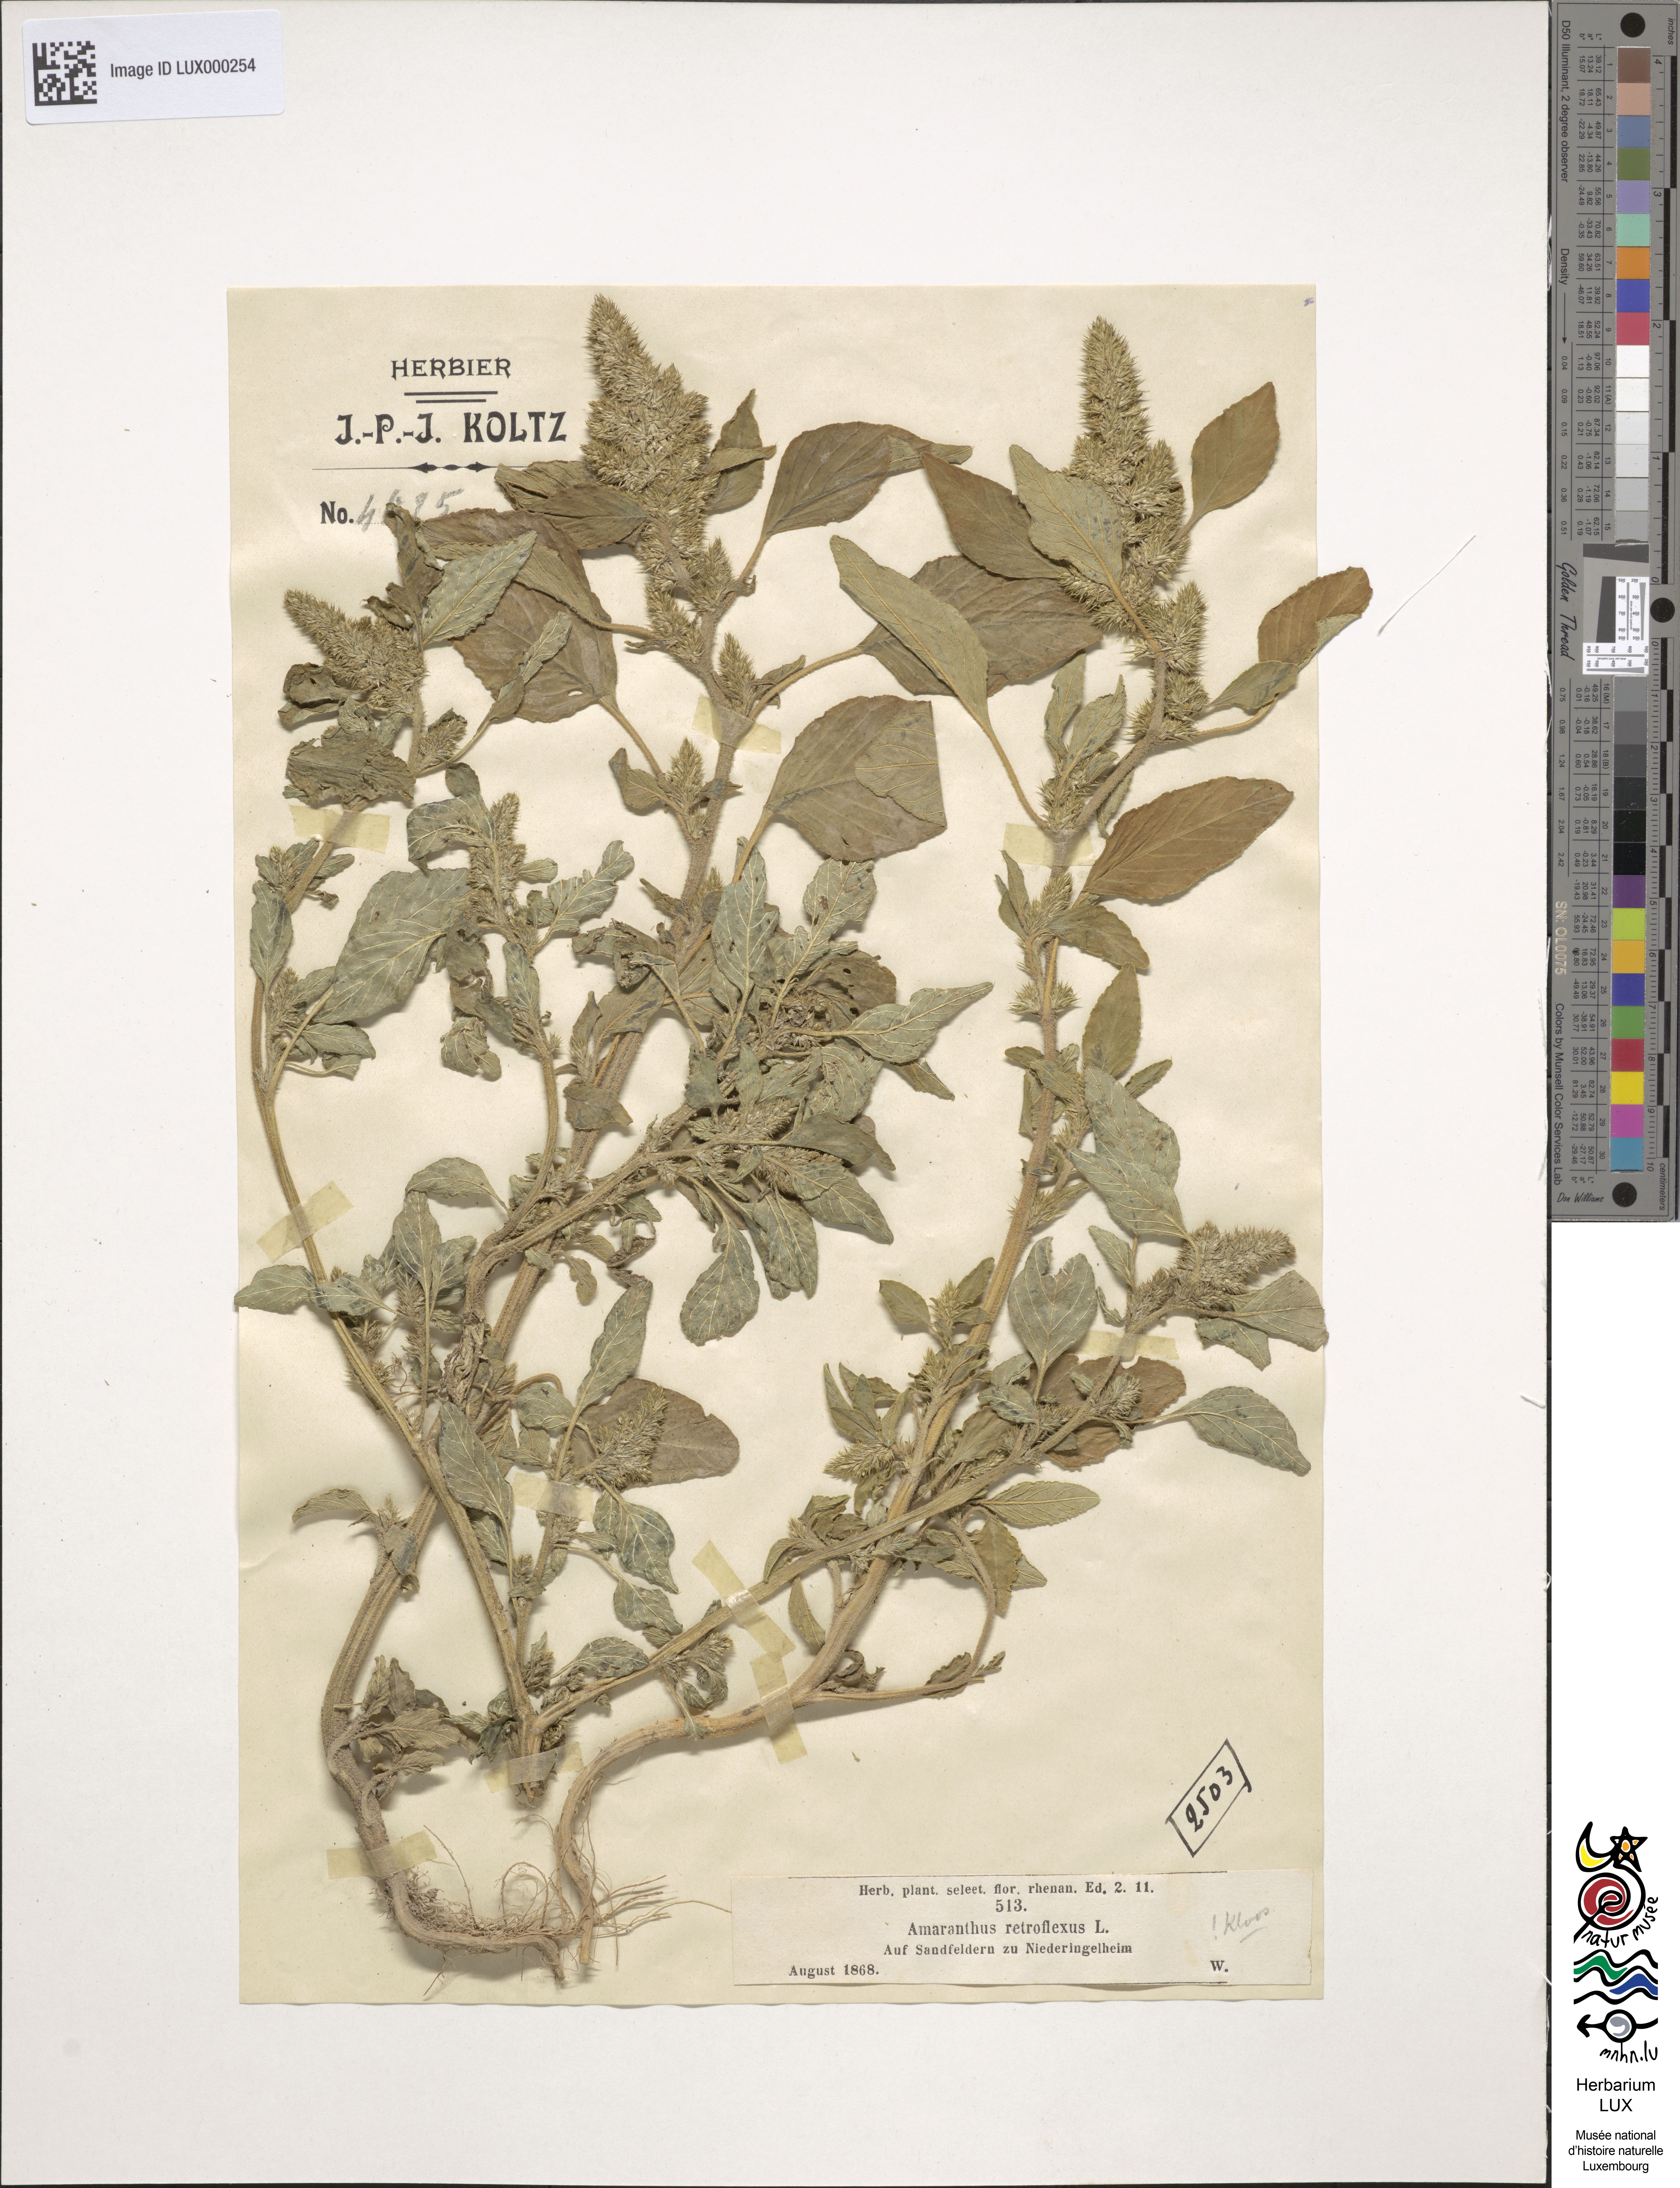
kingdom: Plantae
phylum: Tracheophyta
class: Magnoliopsida
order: Caryophyllales
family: Amaranthaceae
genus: Amaranthus
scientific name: Amaranthus retroflexus
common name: Redroot amaranth
